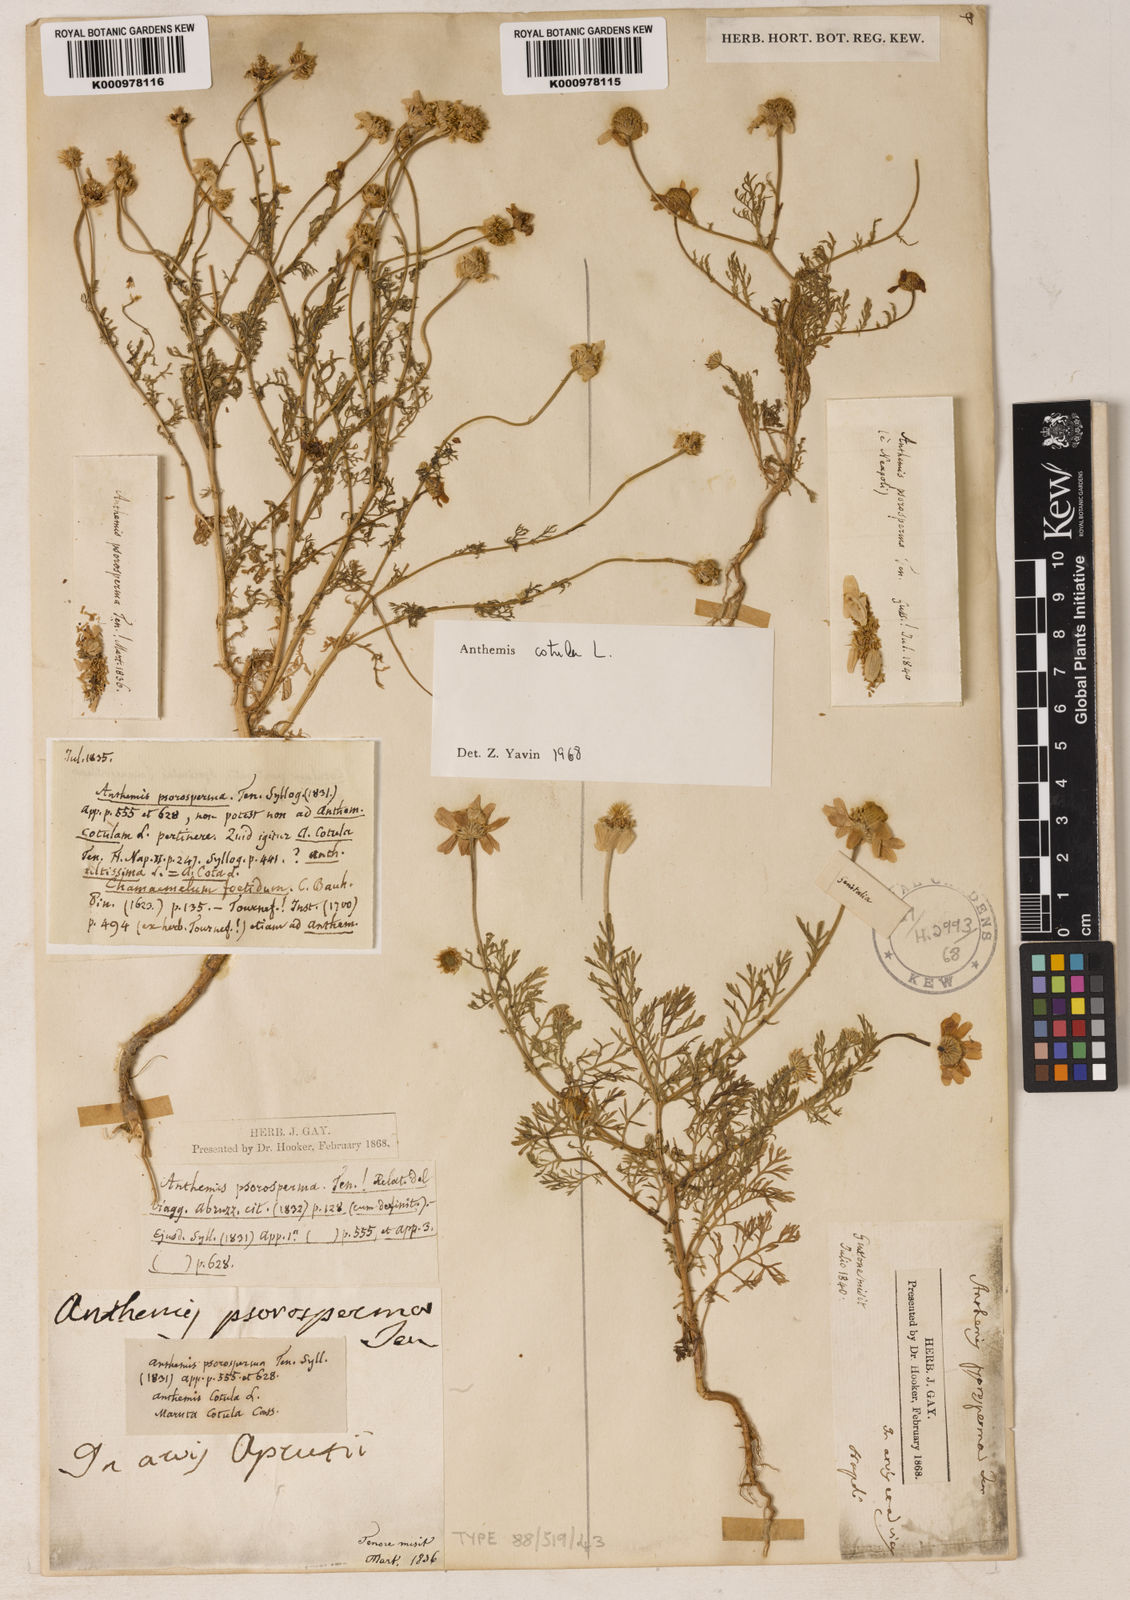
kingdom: Plantae
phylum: Tracheophyta
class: Magnoliopsida
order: Asterales
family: Asteraceae
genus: Anthemis
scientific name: Anthemis cotula
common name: Stinking chamomile
